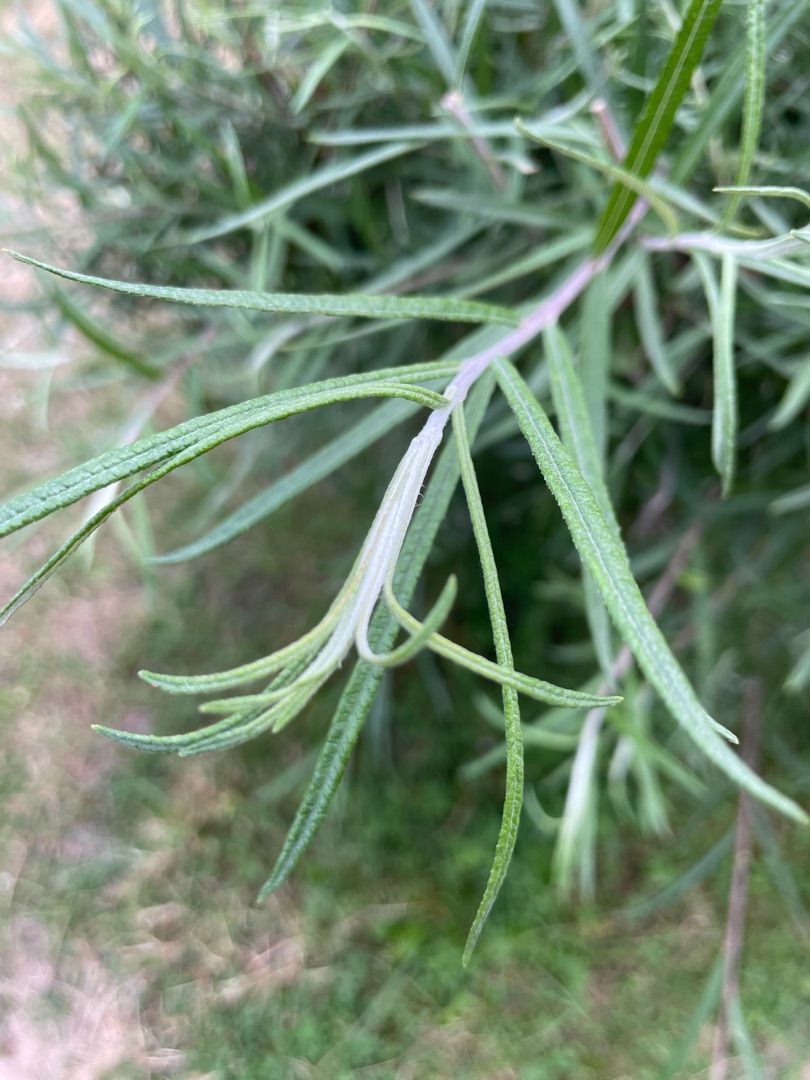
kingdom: Plantae
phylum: Tracheophyta
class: Magnoliopsida
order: Malpighiales
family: Salicaceae
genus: Salix
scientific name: Salix eleagnos
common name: Flod-pil
